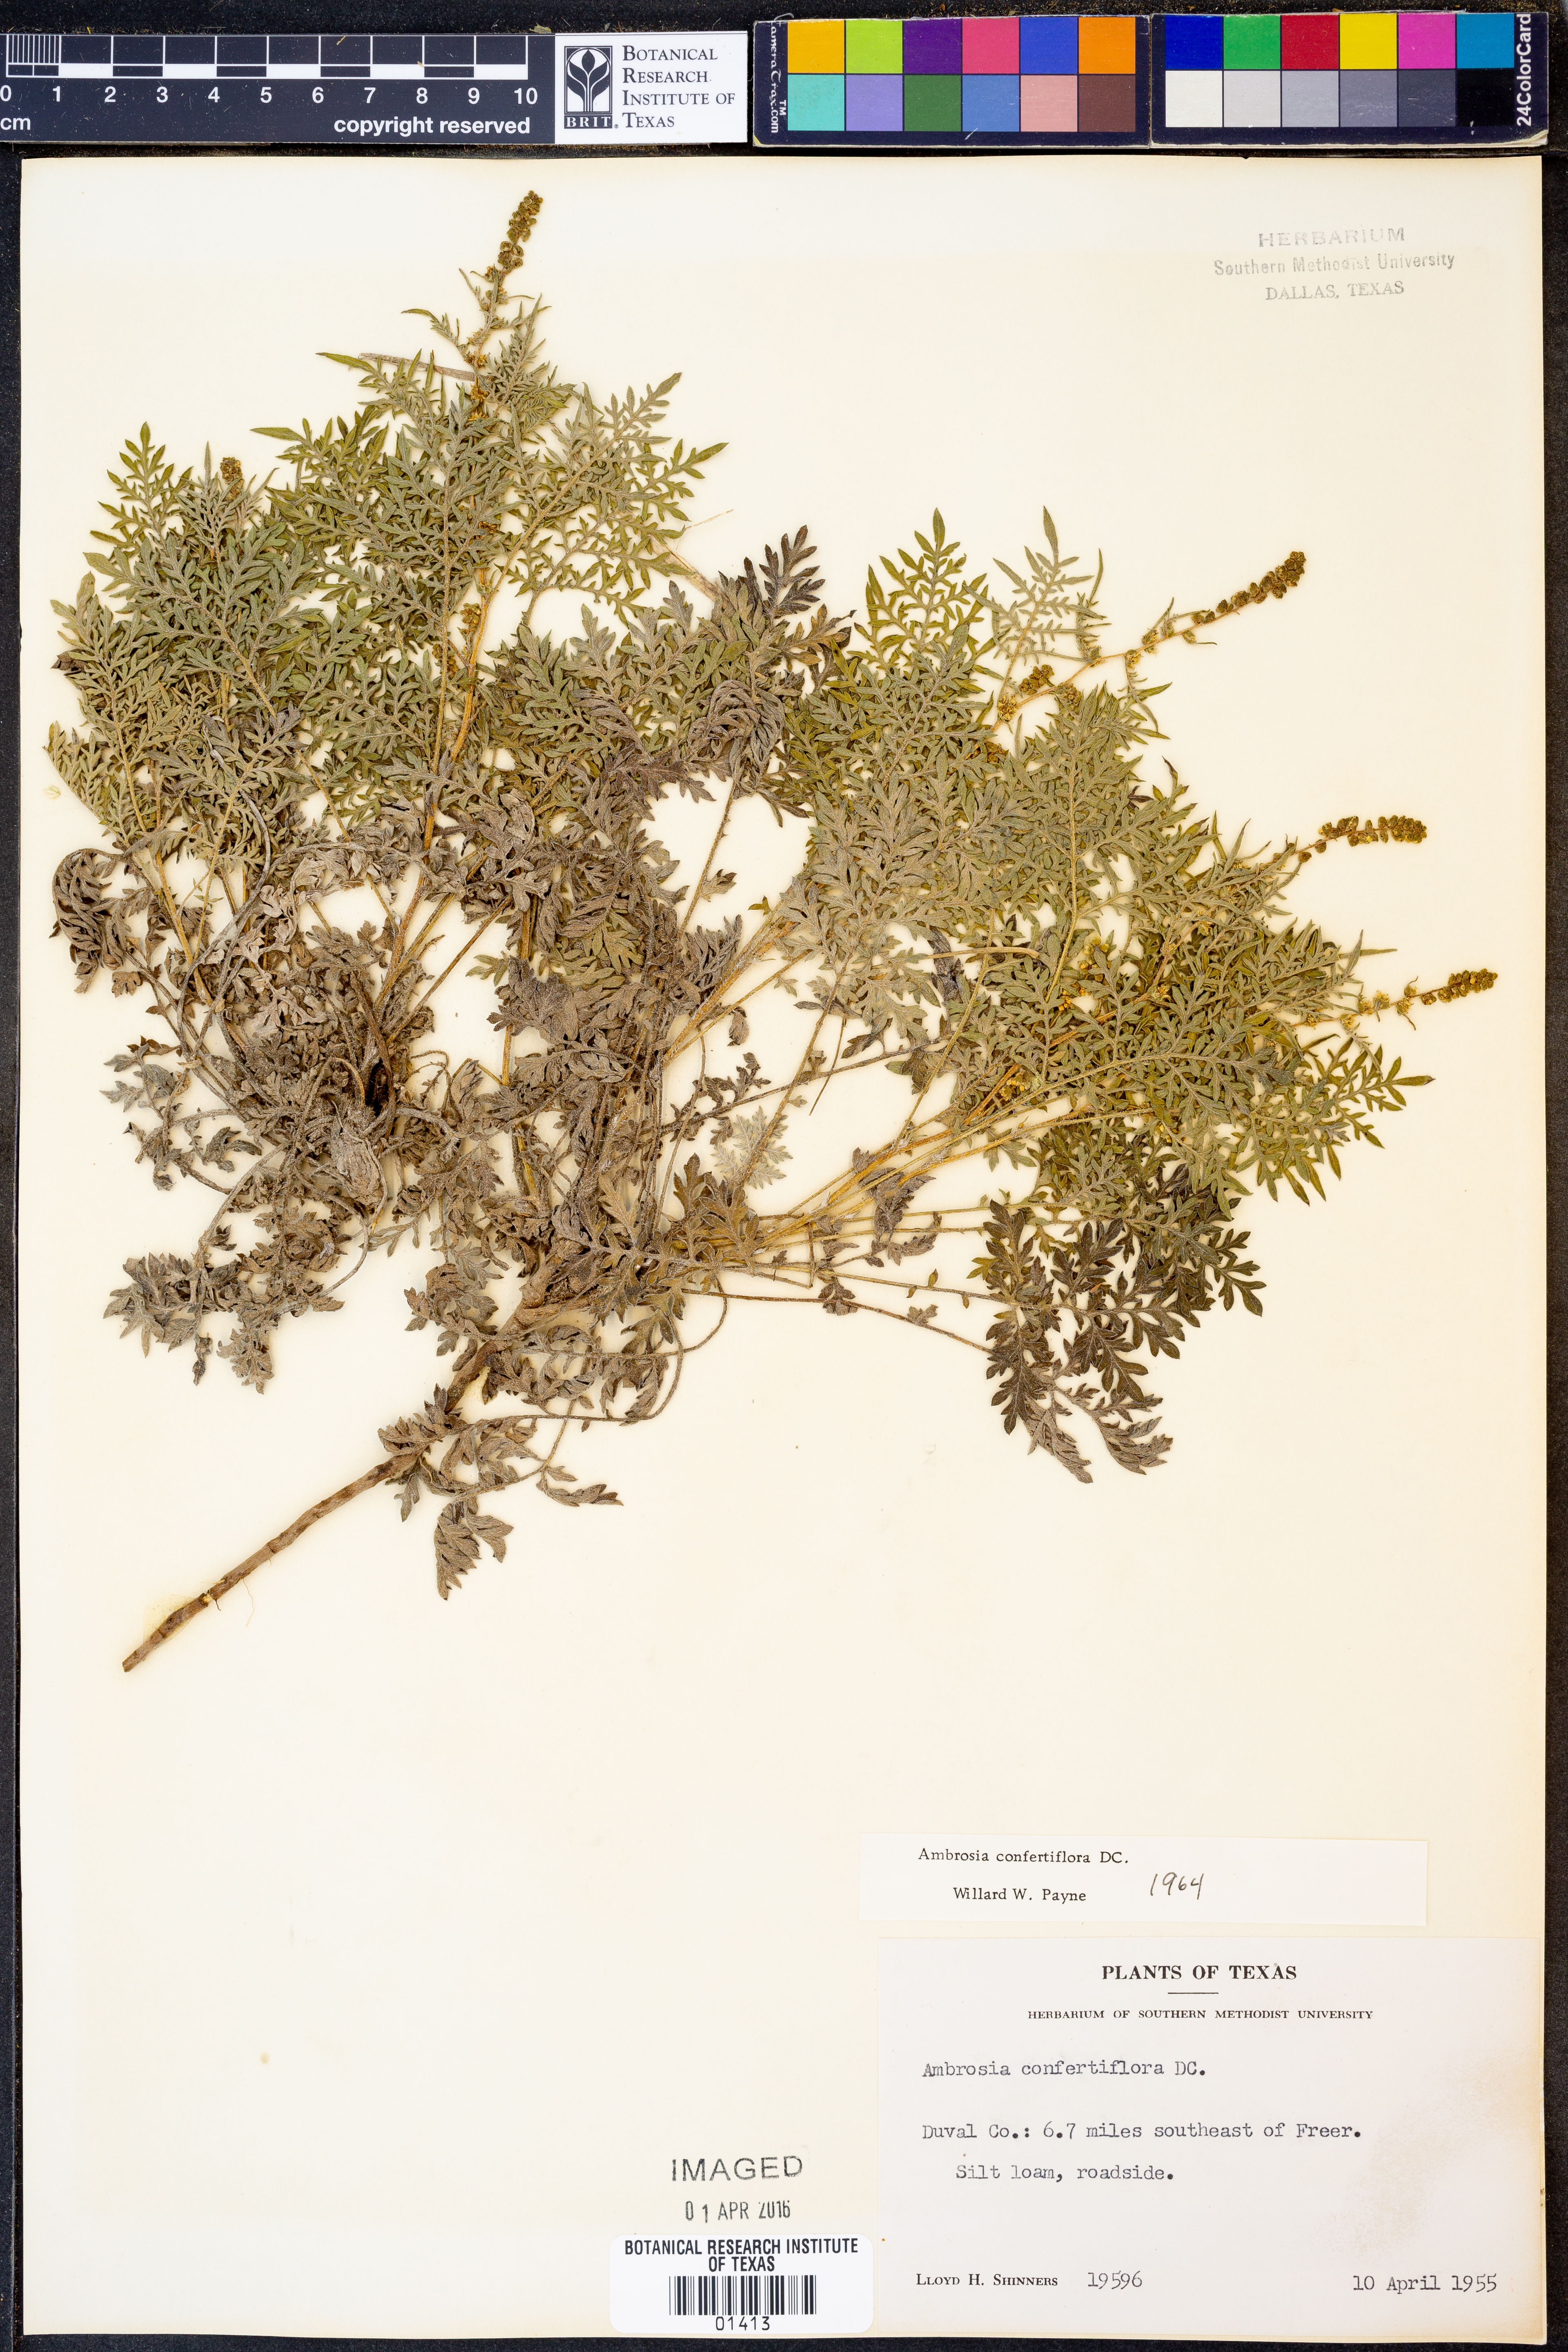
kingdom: Plantae
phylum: Tracheophyta
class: Magnoliopsida
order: Asterales
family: Asteraceae
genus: Ambrosia
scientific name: Ambrosia confertiflora
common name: Bur ragweed
